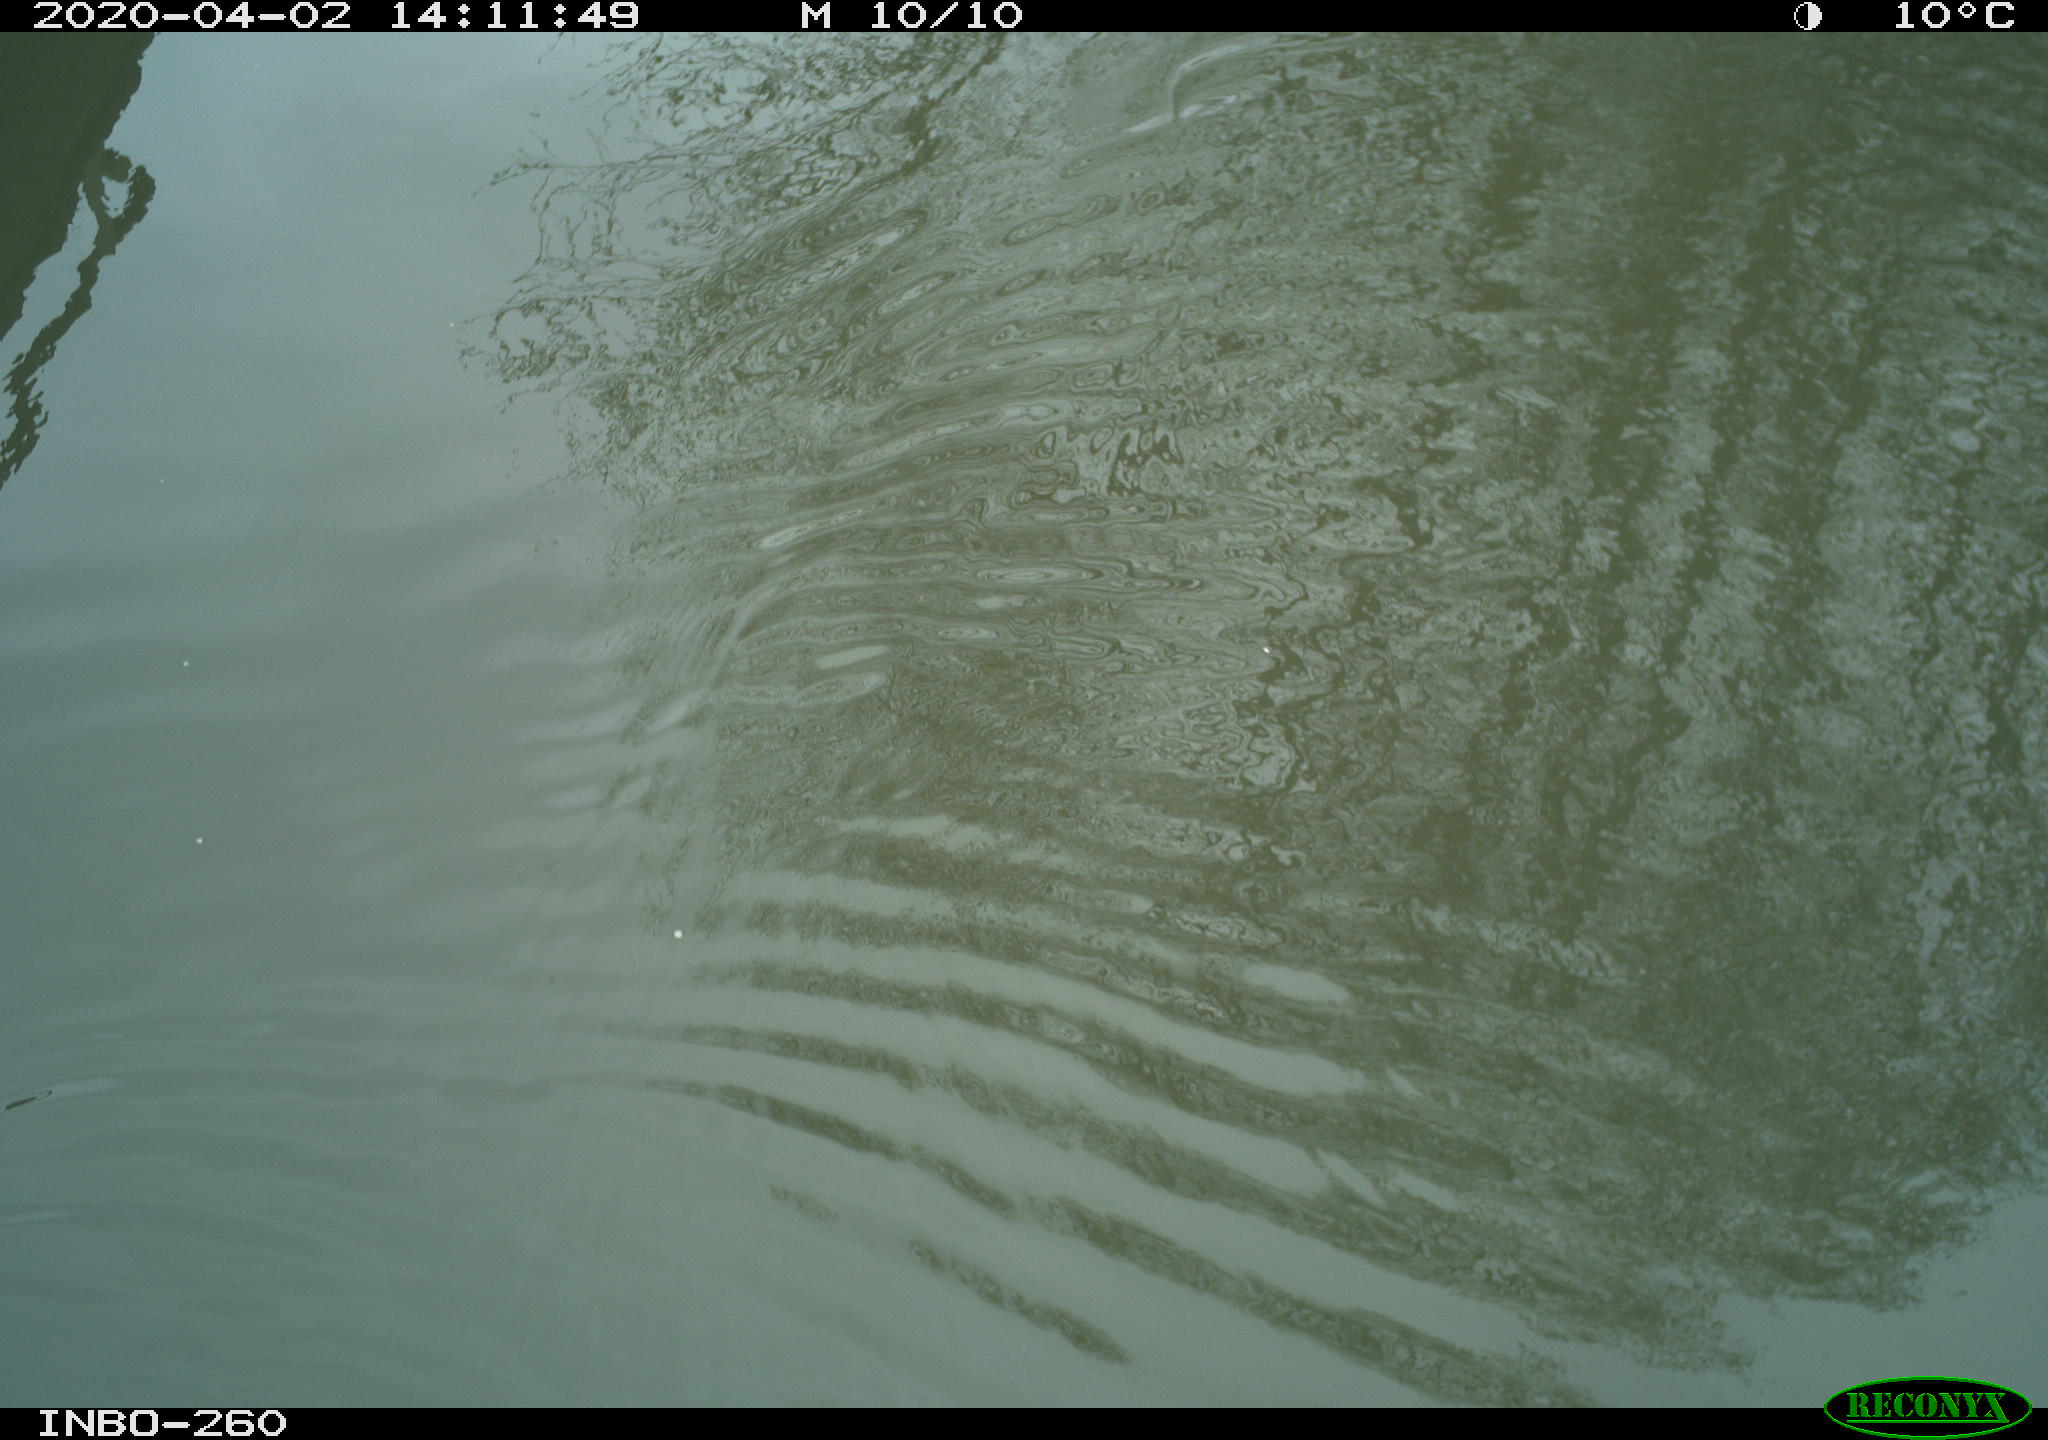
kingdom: Animalia
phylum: Chordata
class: Aves
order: Gruiformes
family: Rallidae
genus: Fulica
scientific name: Fulica atra
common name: Eurasian coot
